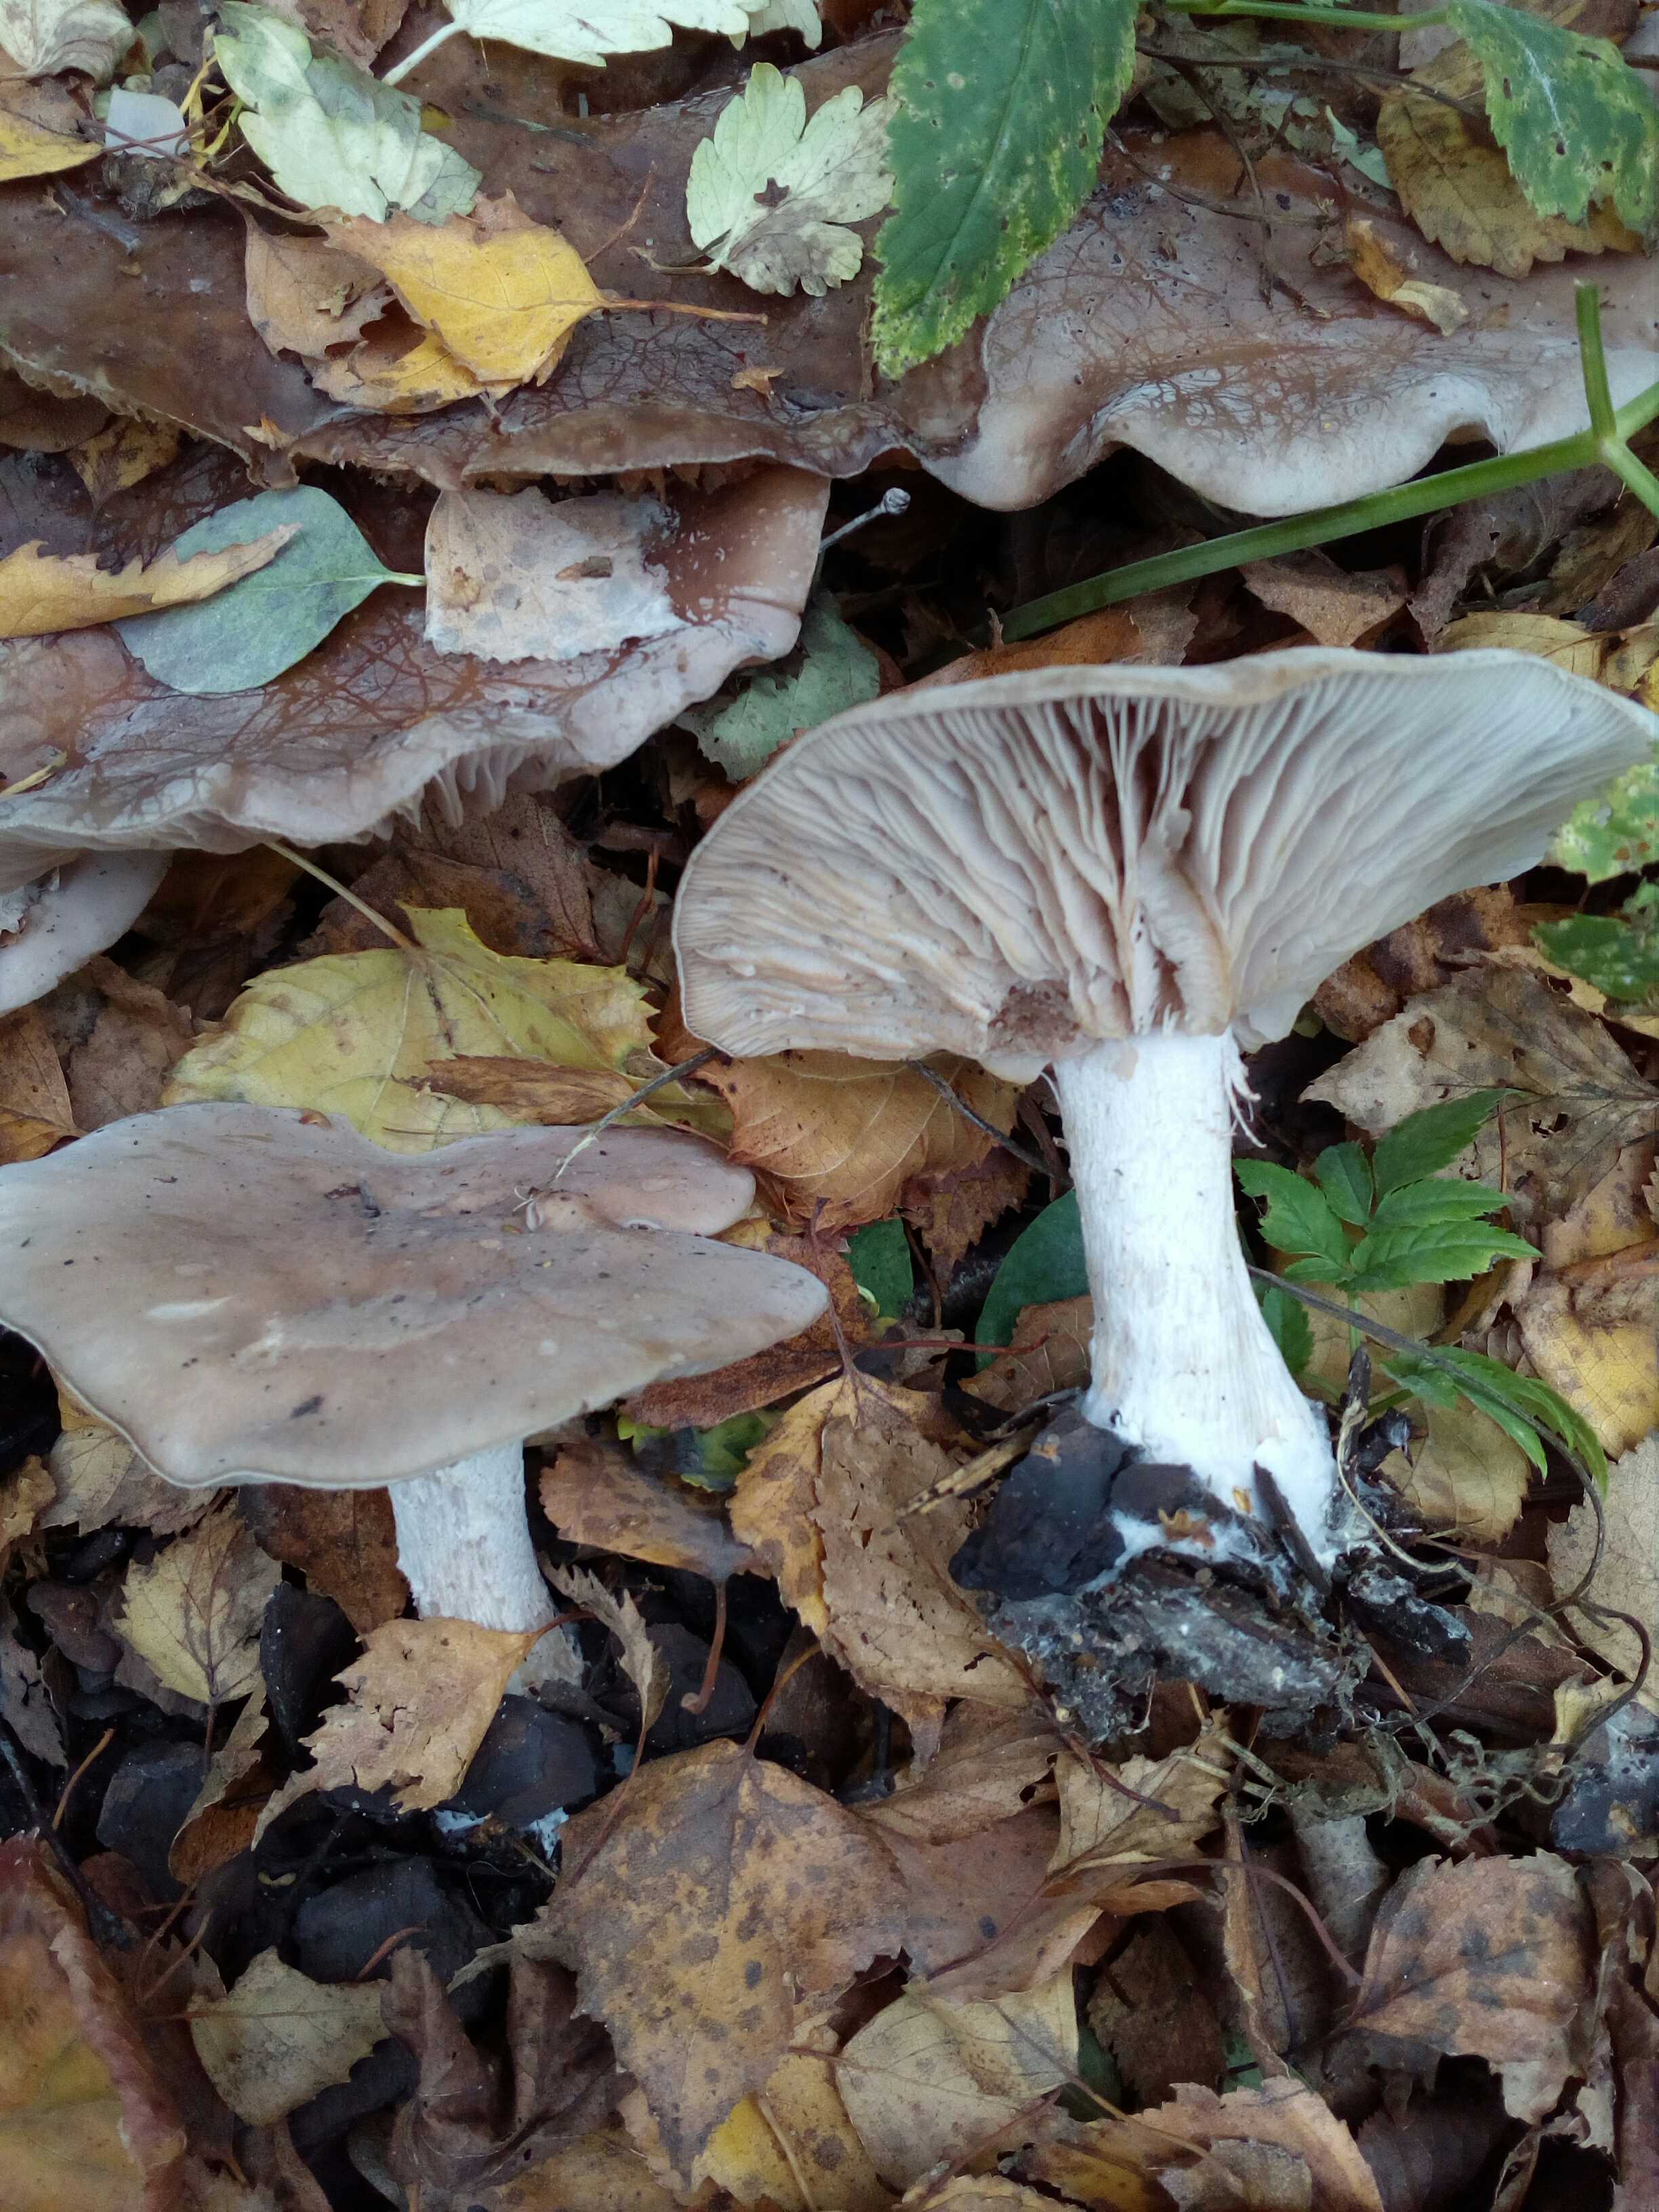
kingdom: Fungi
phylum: Basidiomycota
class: Agaricomycetes
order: Agaricales
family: Tricholomataceae
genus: Lepista
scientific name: Lepista nuda
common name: violet hekseringshat
